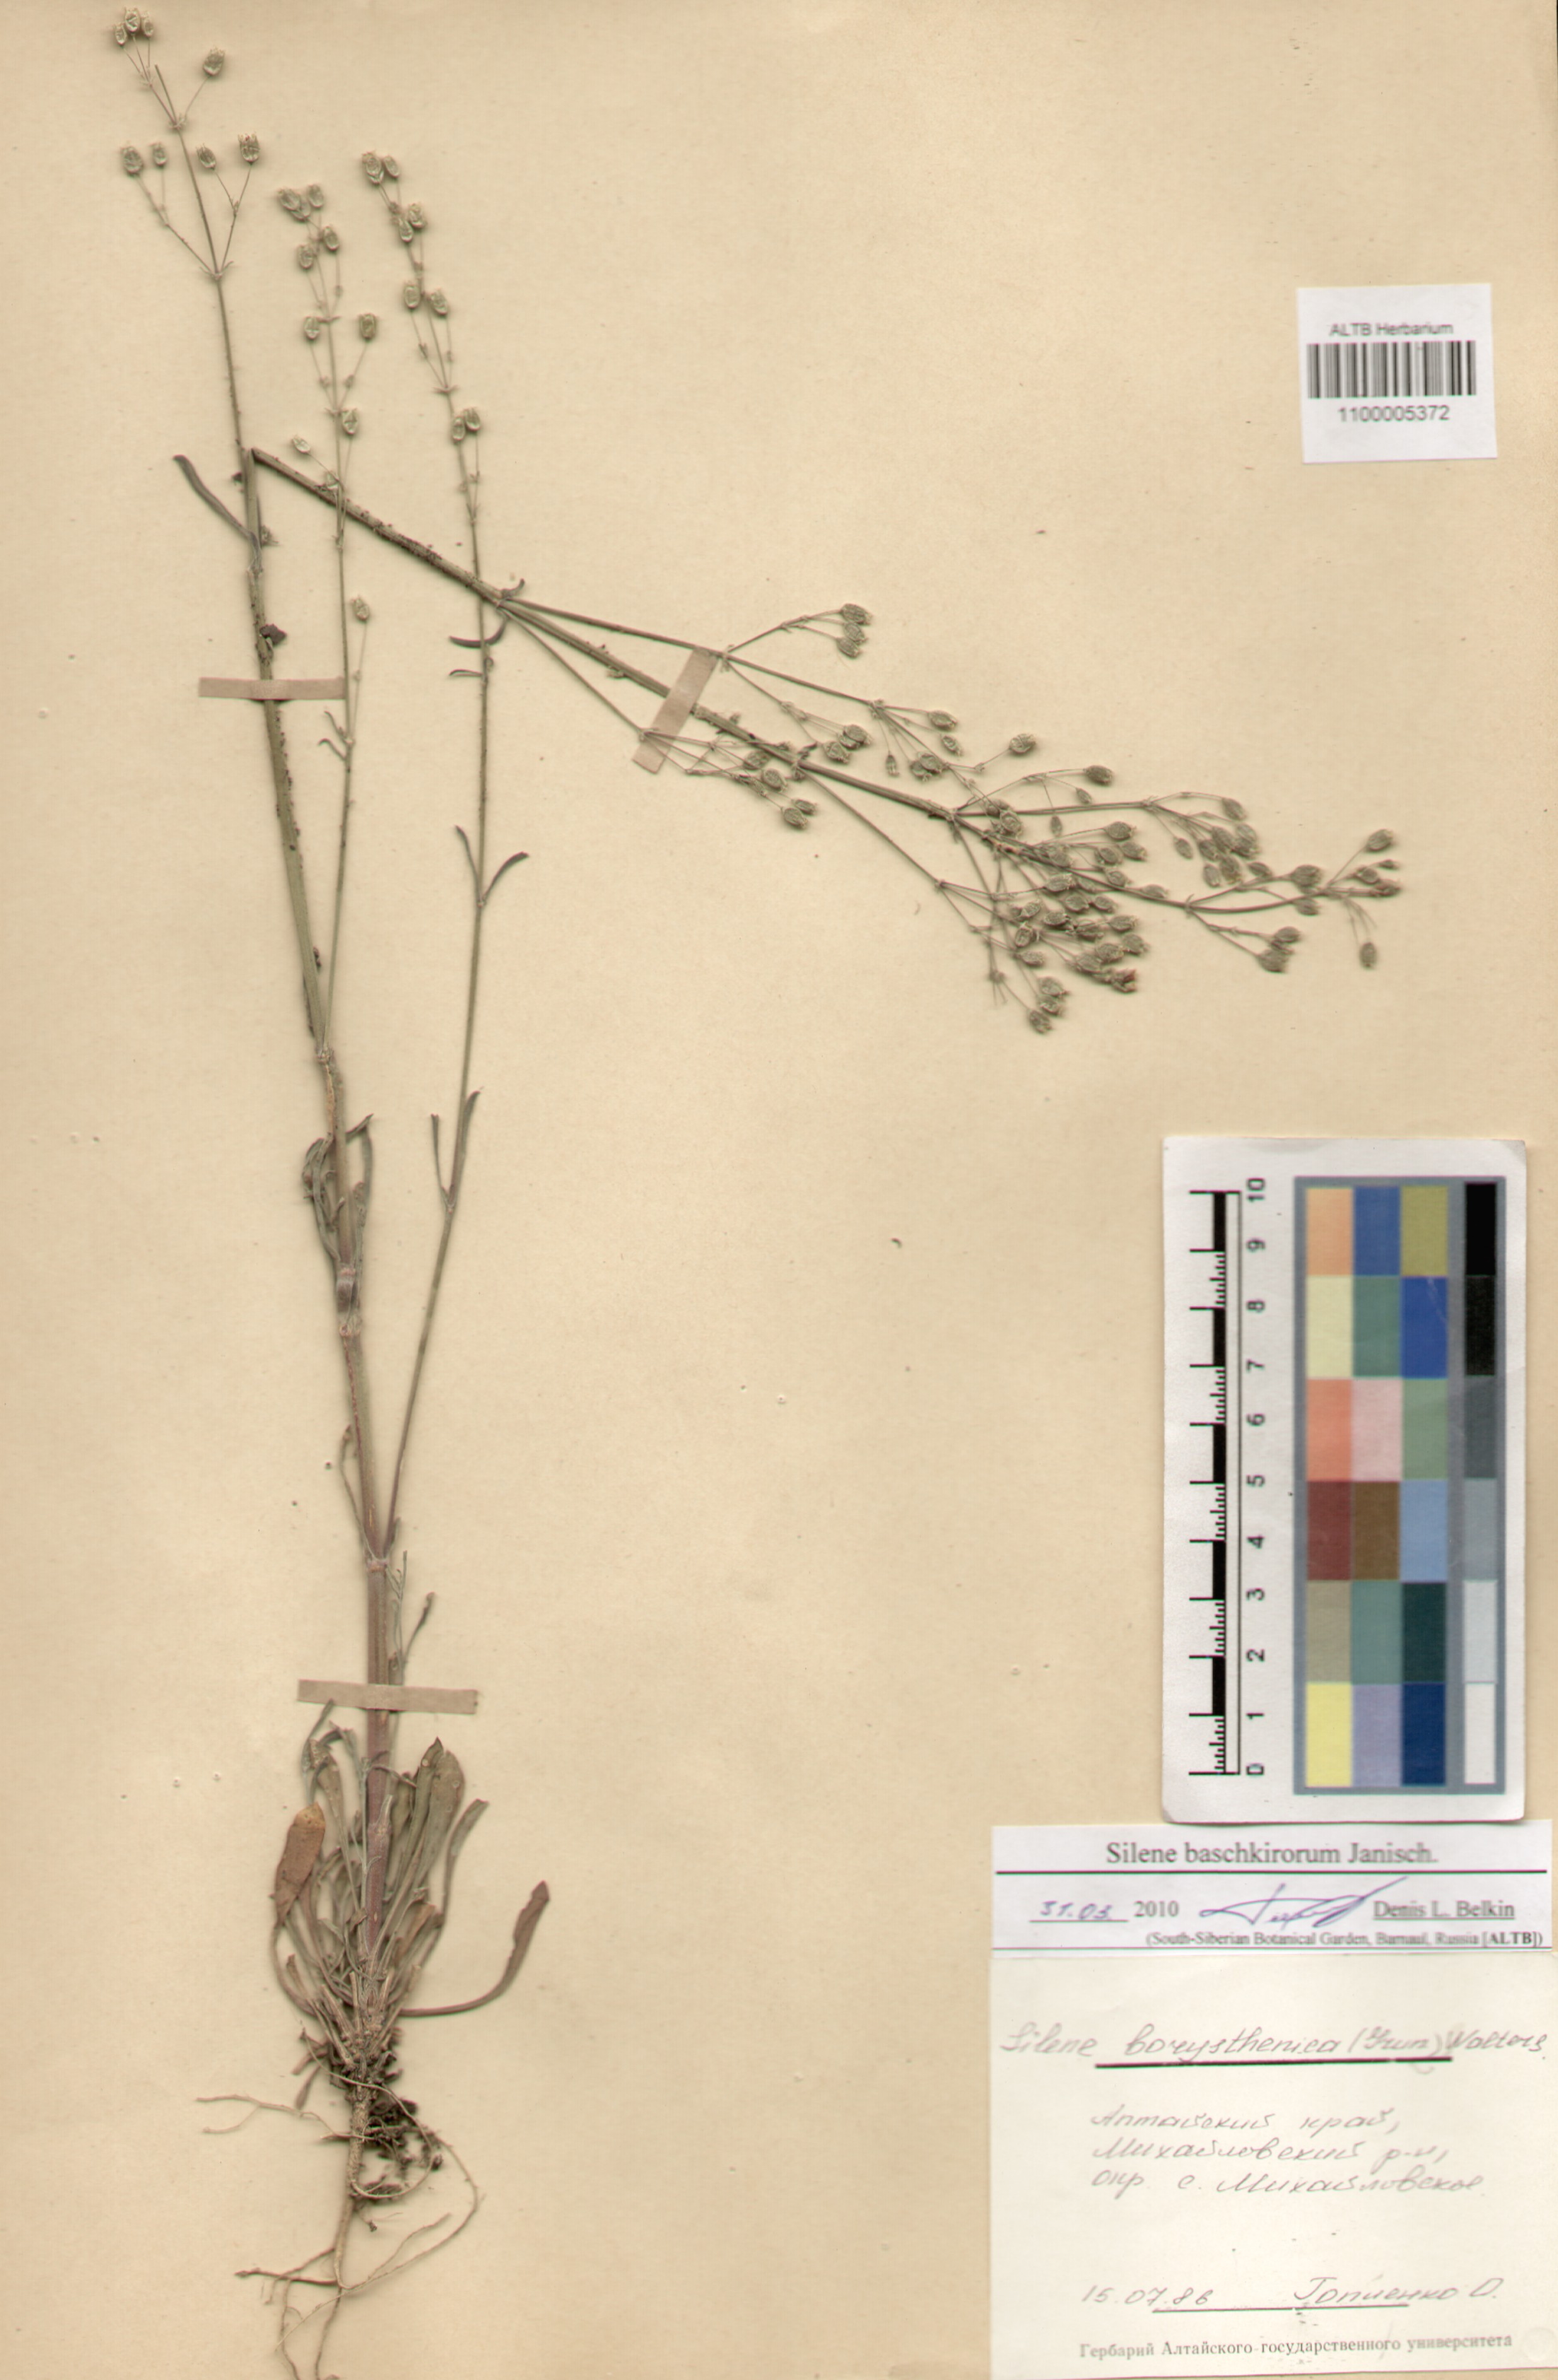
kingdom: Plantae
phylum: Tracheophyta
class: Magnoliopsida
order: Caryophyllales
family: Caryophyllaceae
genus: Silene
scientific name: Silene borysthenica
